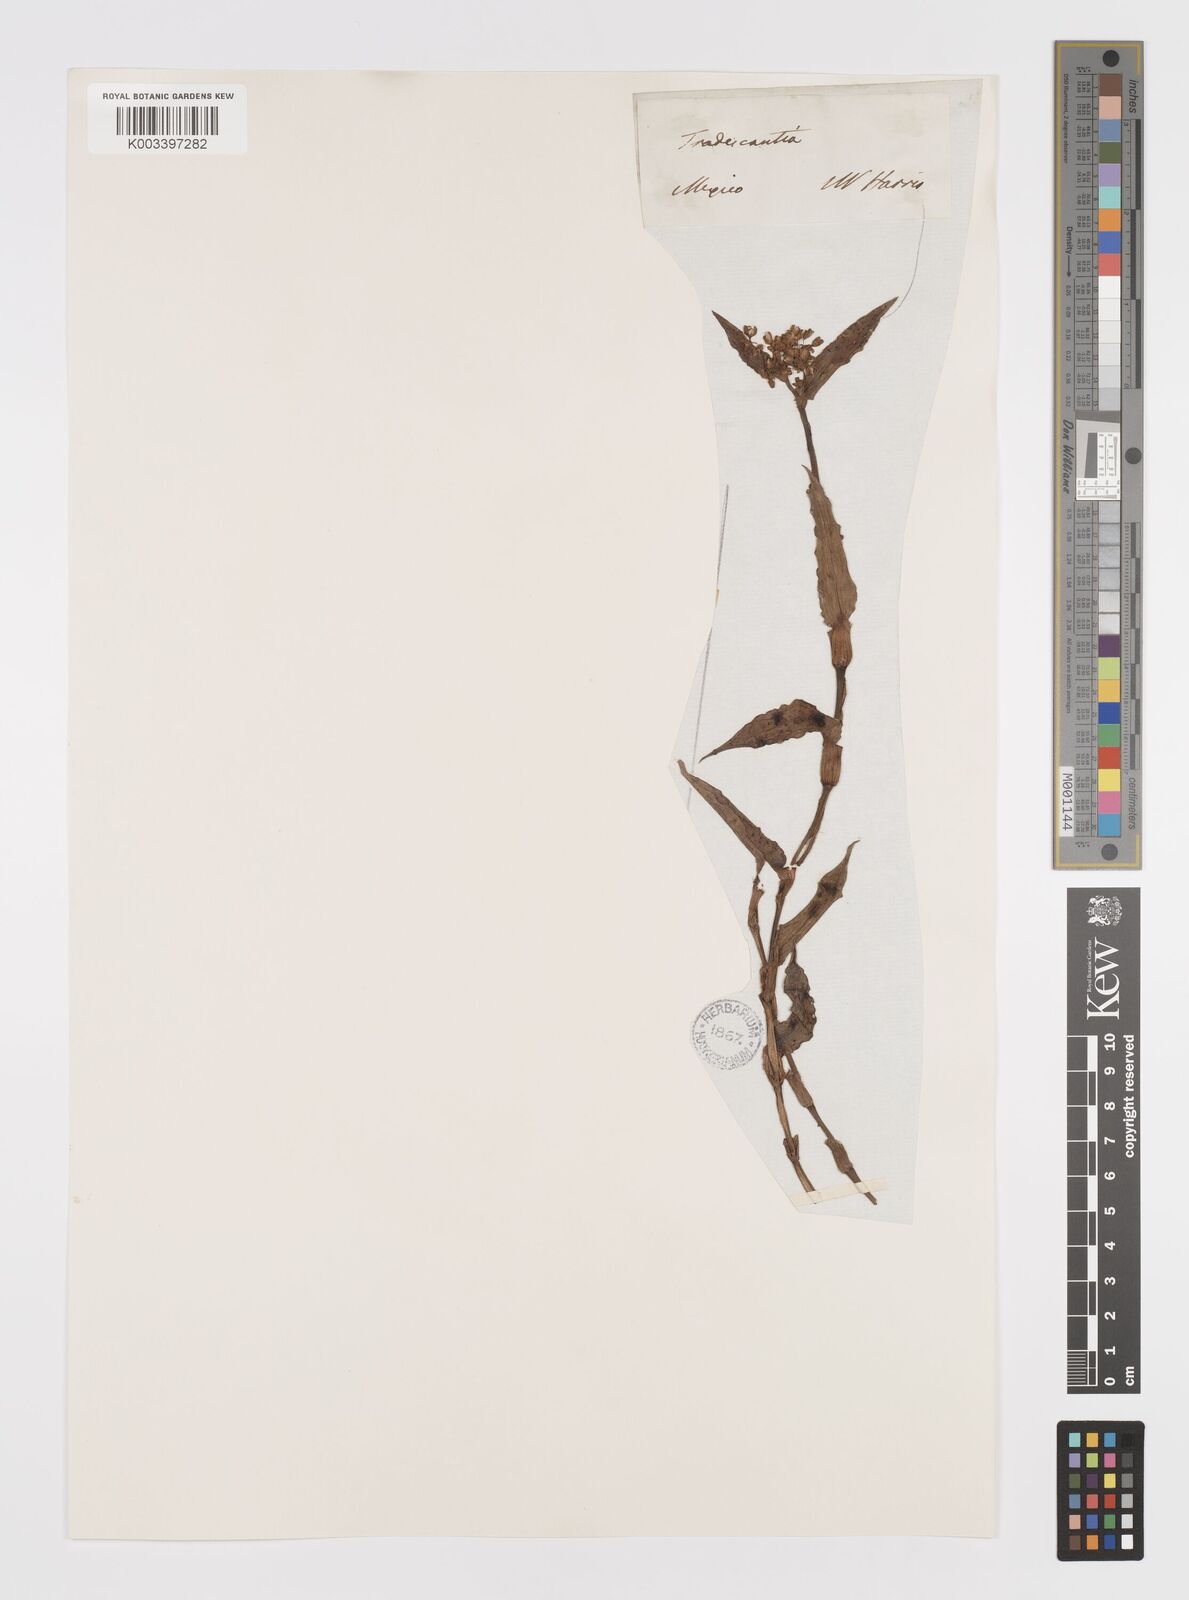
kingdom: Plantae
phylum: Tracheophyta
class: Liliopsida
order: Commelinales
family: Commelinaceae
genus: Callisia
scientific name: Callisia serrulata
